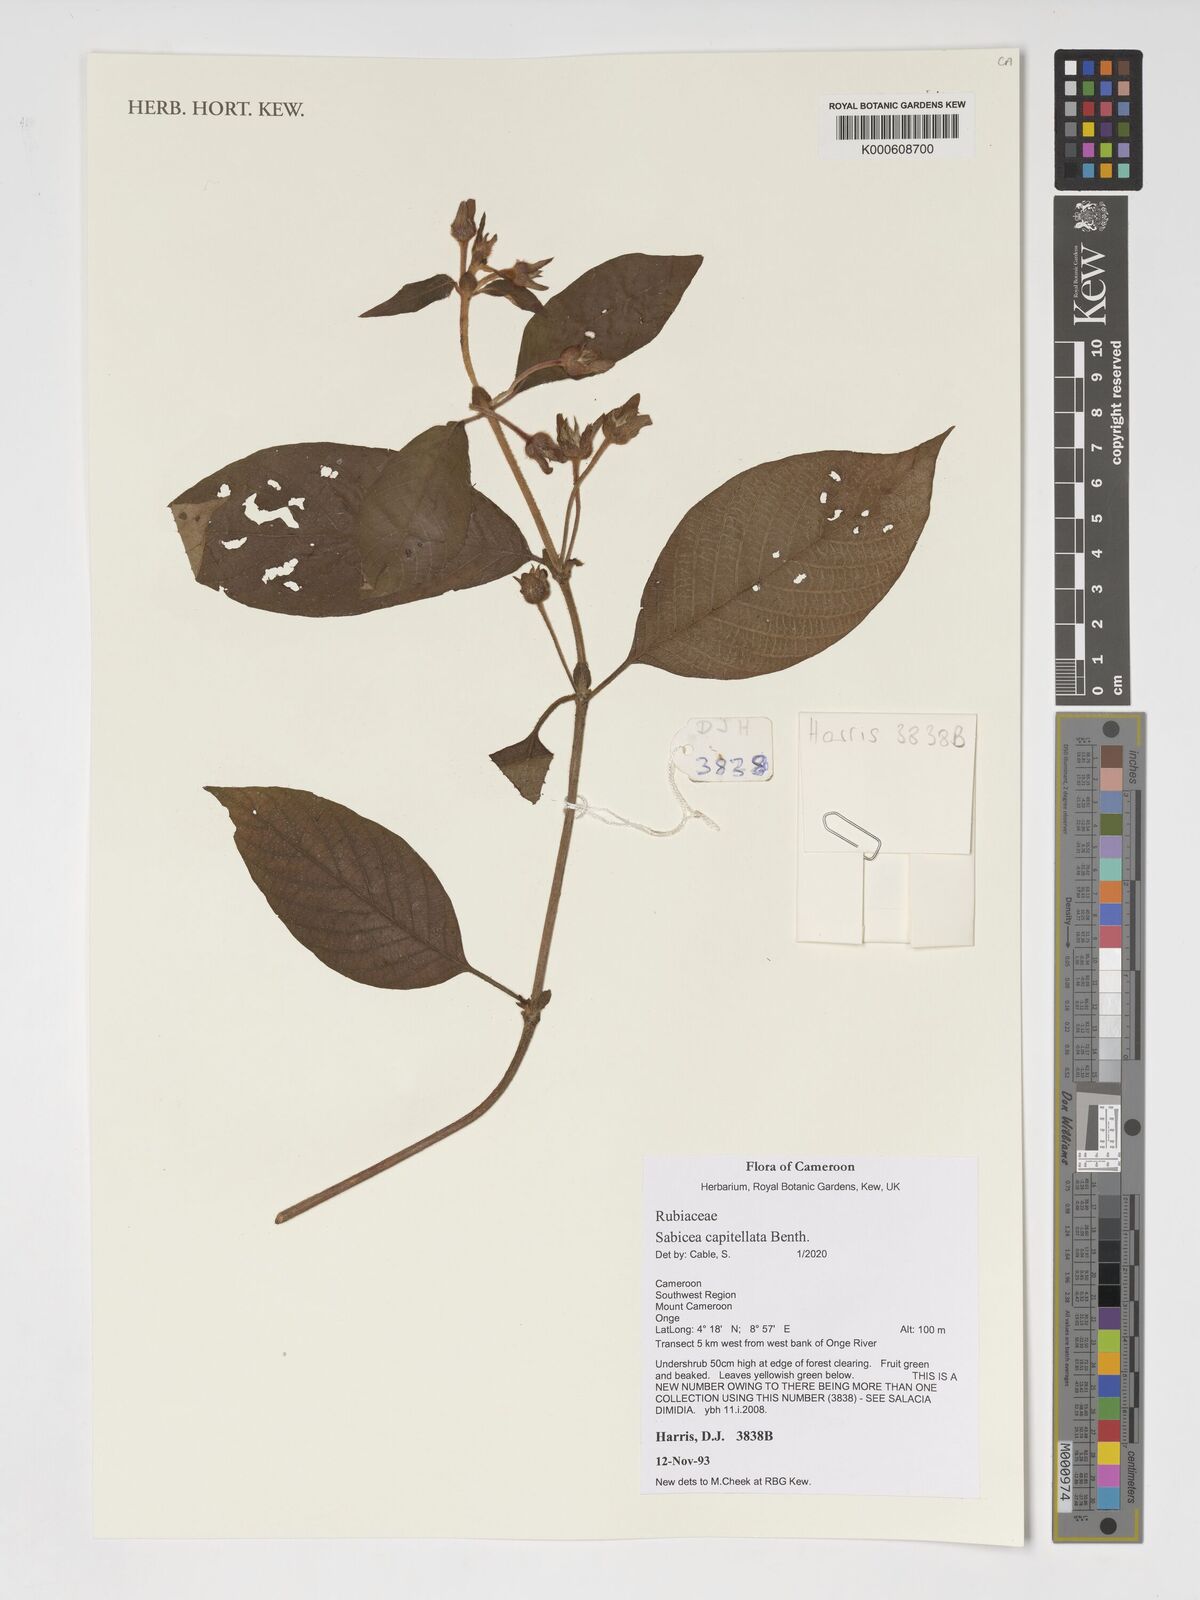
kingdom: Plantae
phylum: Tracheophyta
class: Magnoliopsida
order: Gentianales
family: Rubiaceae
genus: Sabicea
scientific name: Sabicea capitellata
